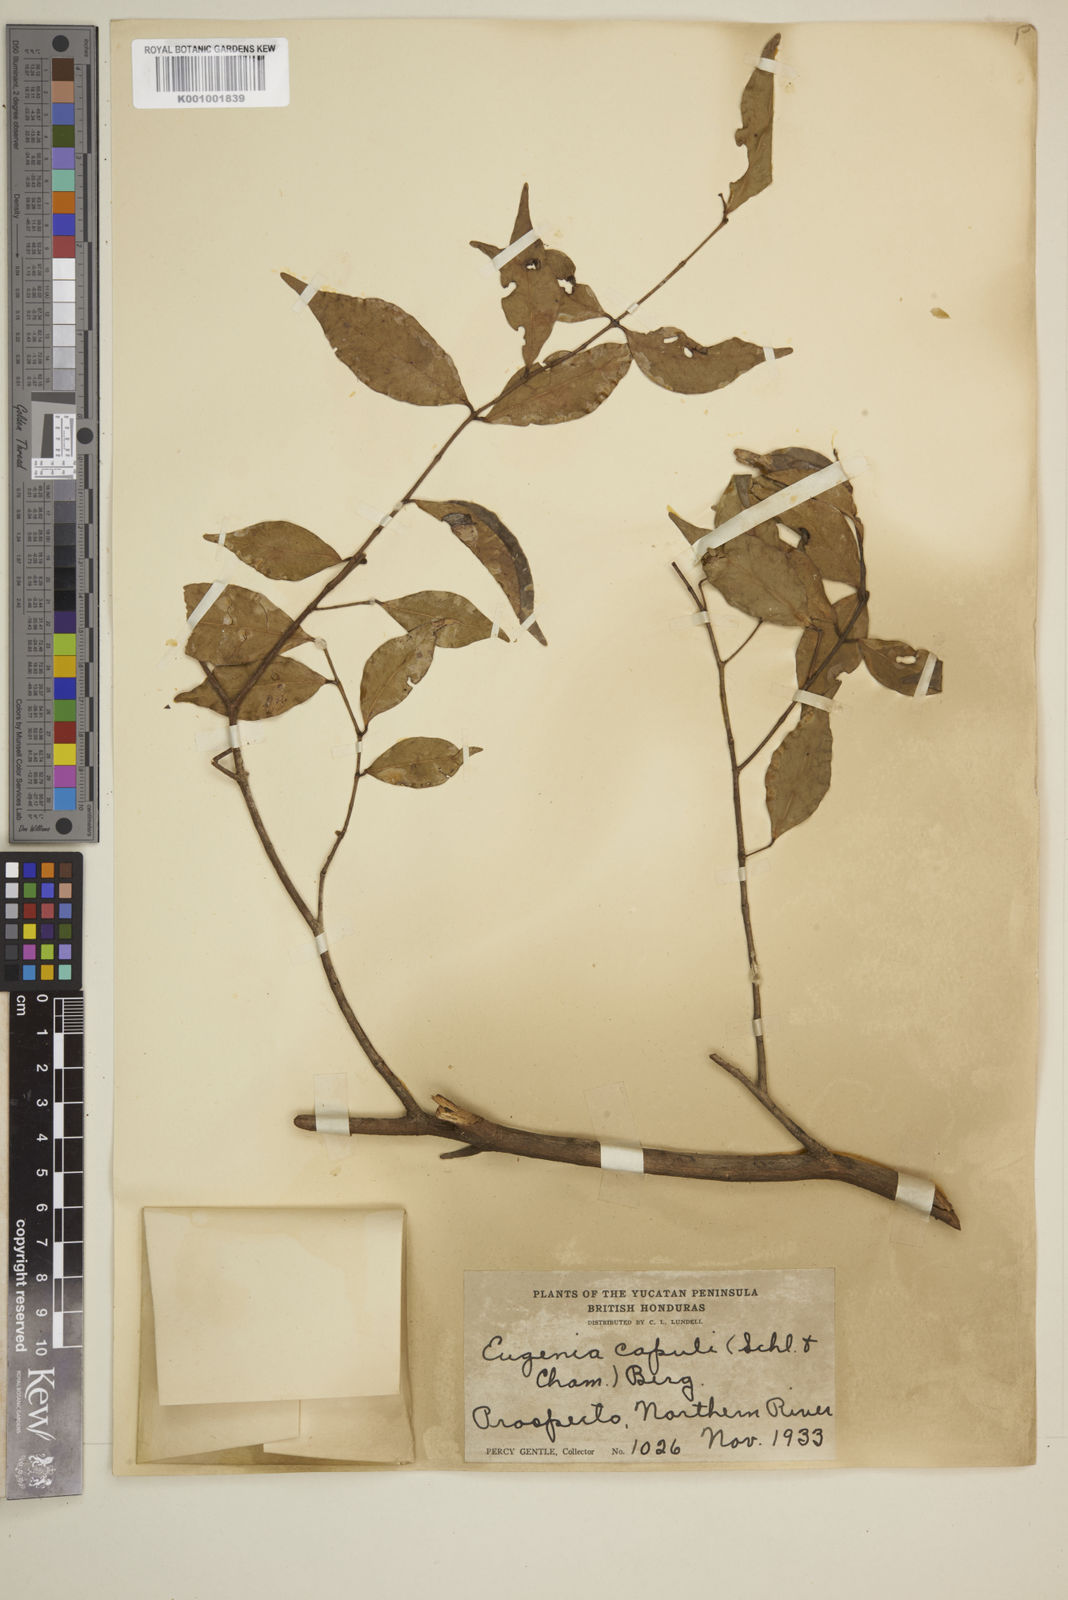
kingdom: Plantae
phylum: Tracheophyta
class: Magnoliopsida
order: Myrtales
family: Myrtaceae
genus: Eugenia
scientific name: Eugenia capuli
